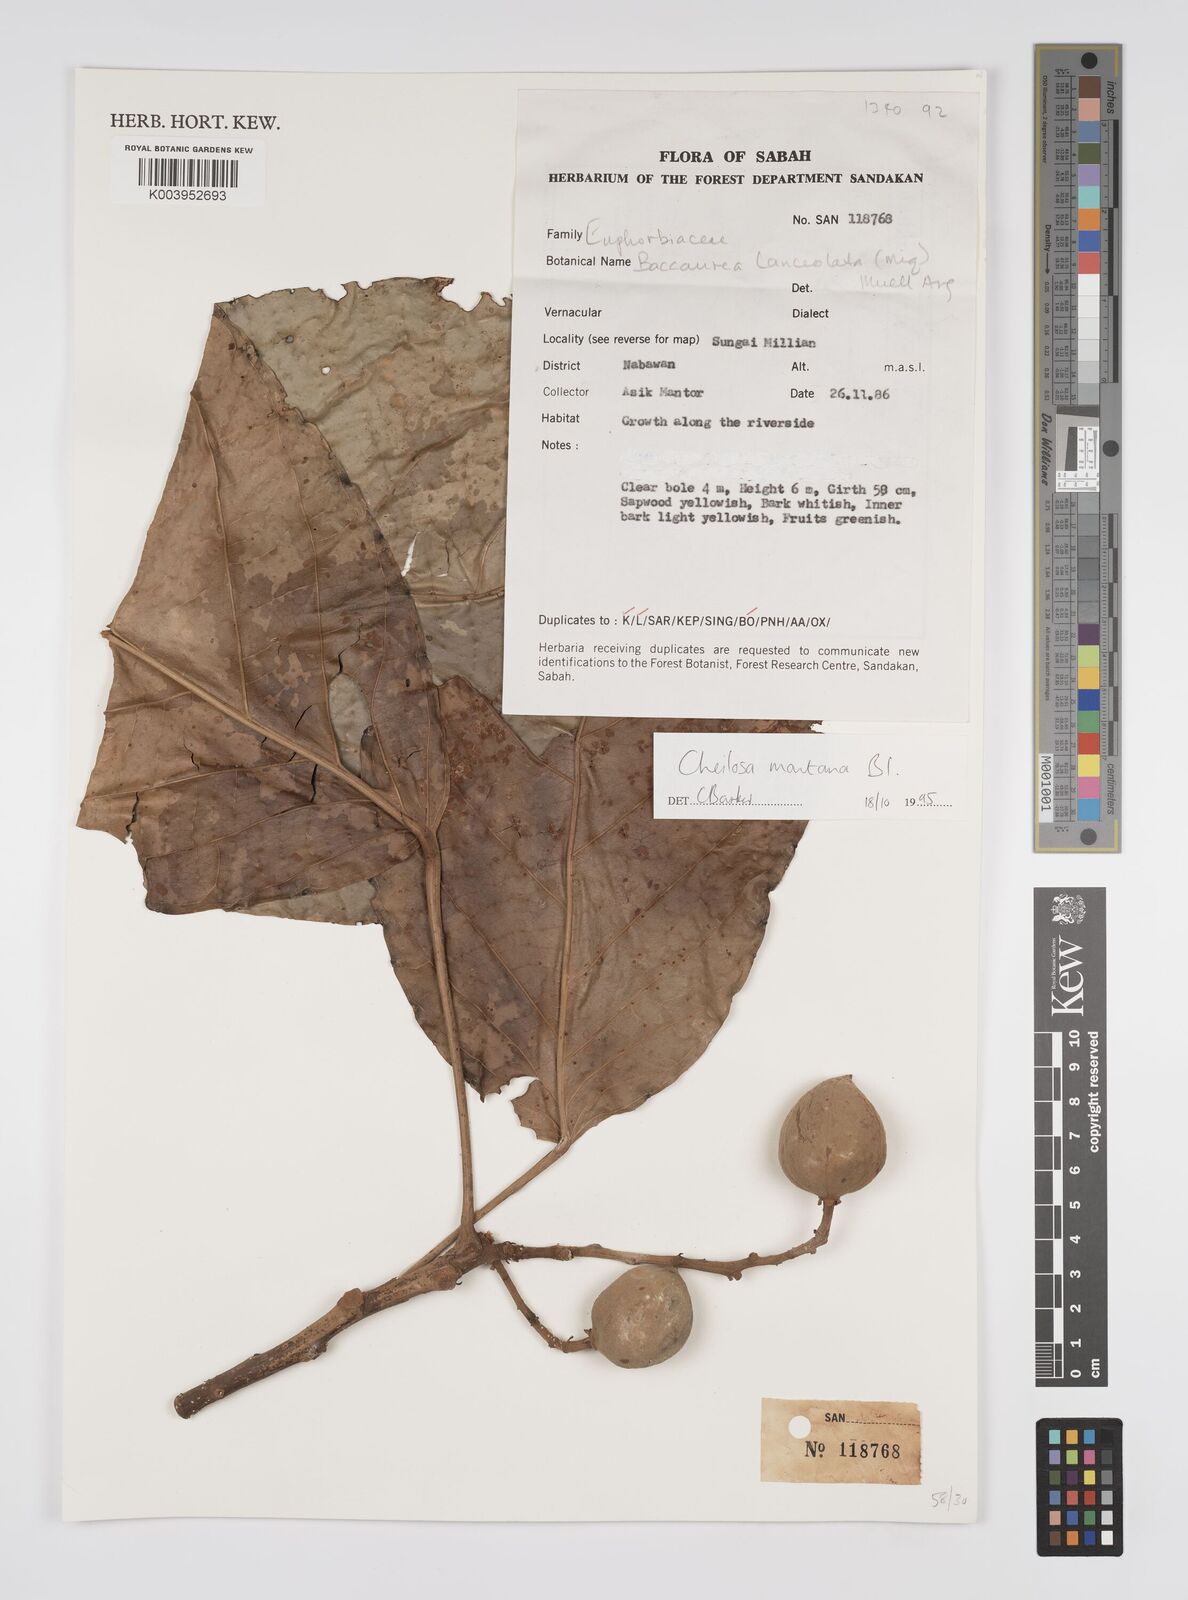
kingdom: Plantae
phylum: Tracheophyta
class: Magnoliopsida
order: Malpighiales
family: Euphorbiaceae
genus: Cheilosa
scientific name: Cheilosa montana
